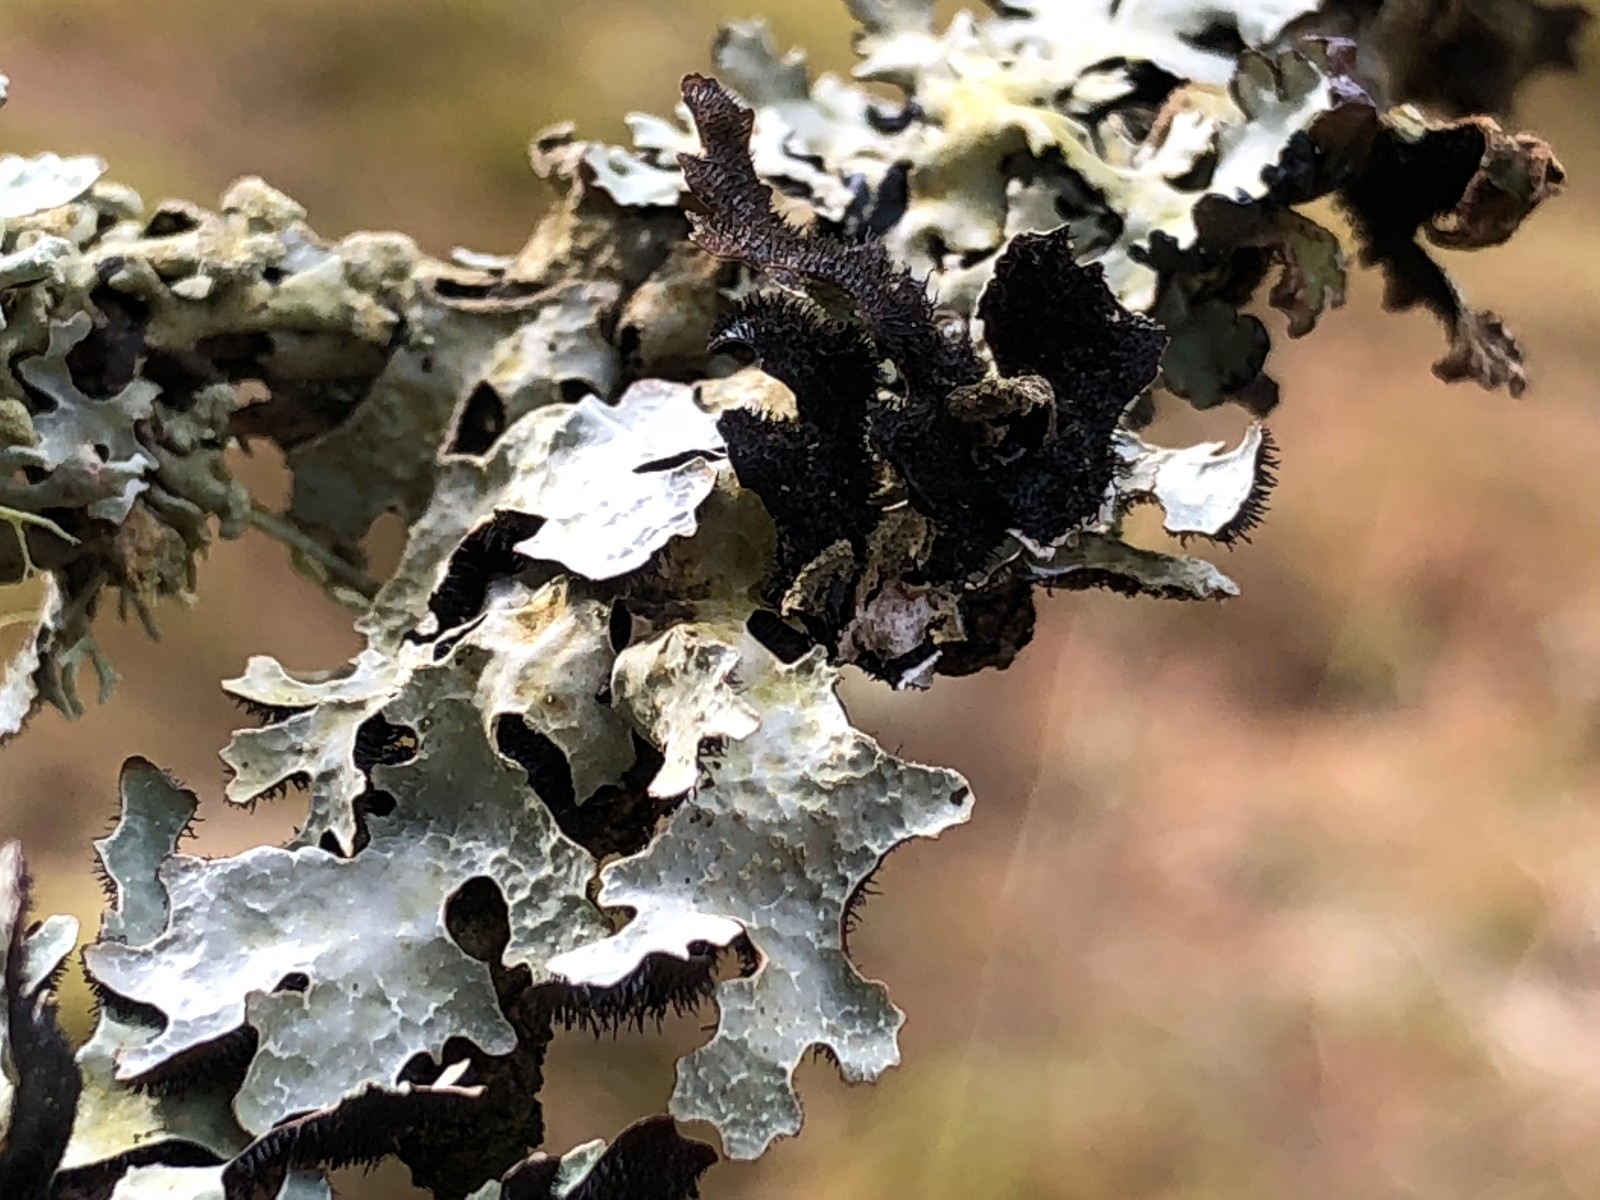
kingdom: Fungi
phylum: Ascomycota
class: Lecanoromycetes
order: Lecanorales
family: Parmeliaceae
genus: Parmelia
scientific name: Parmelia sulcata
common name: rynket skållav
